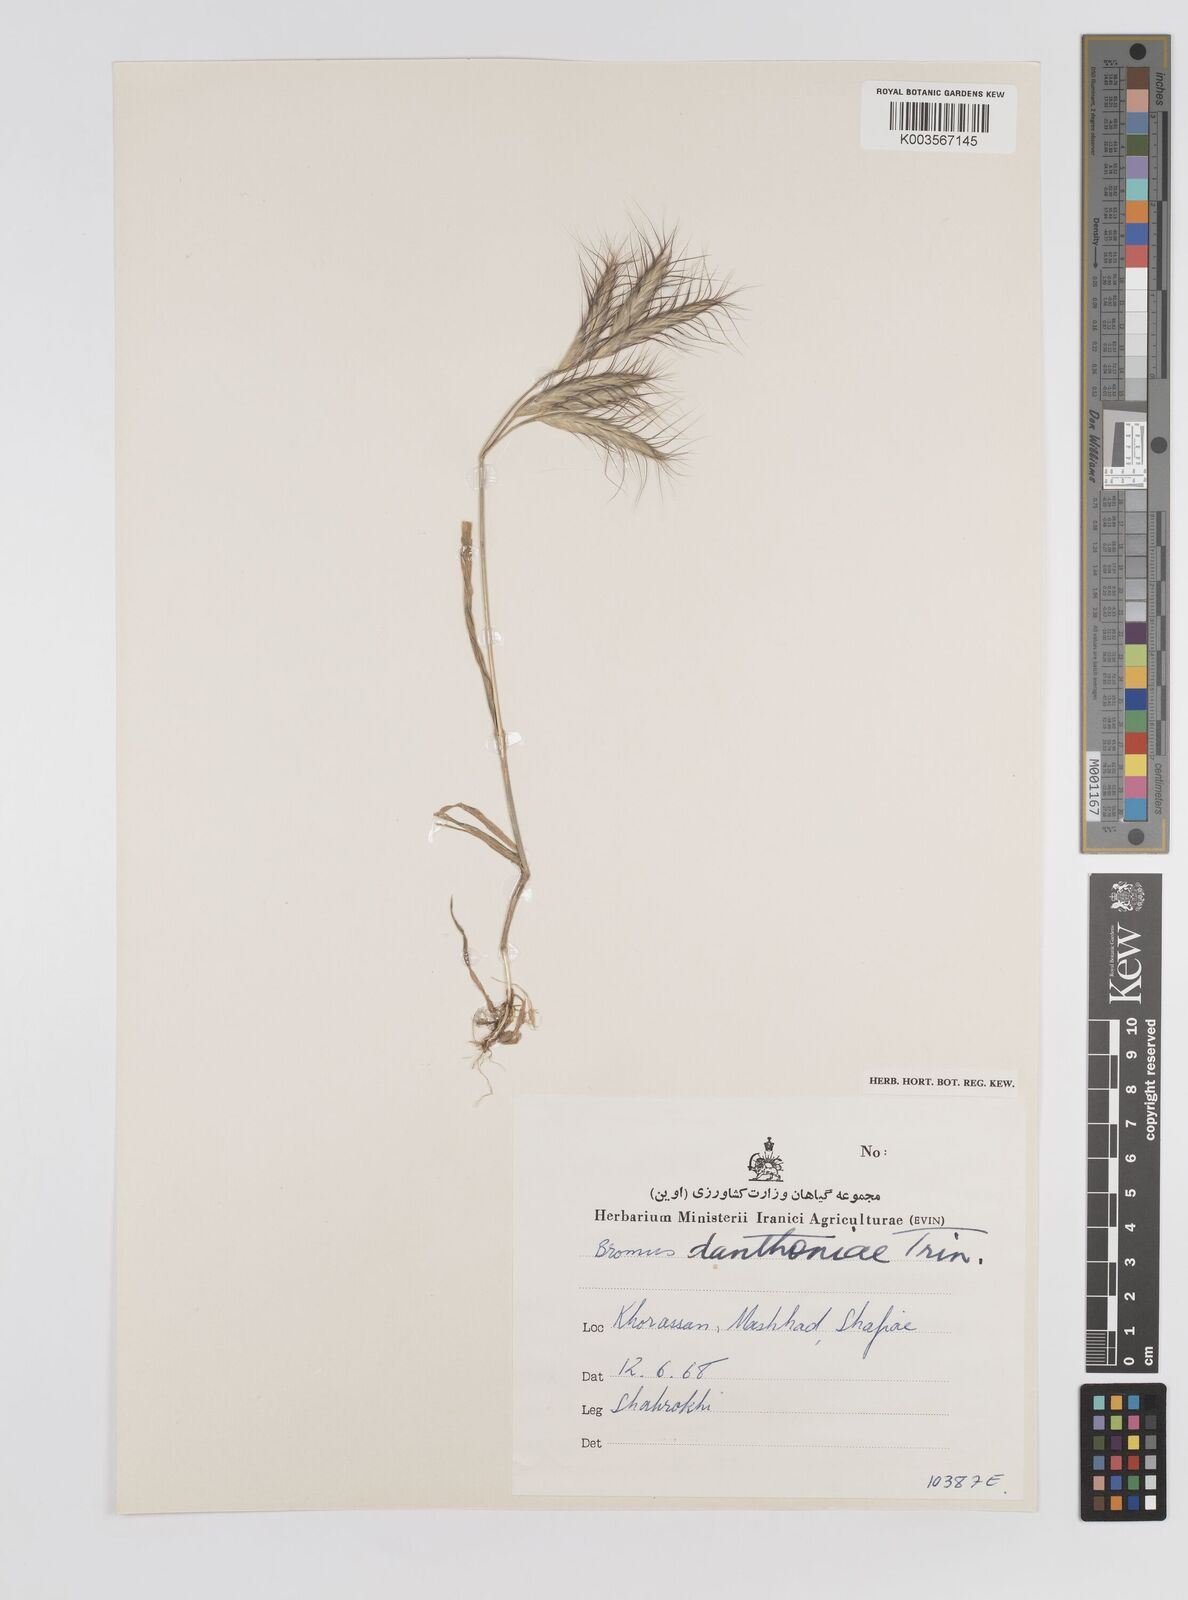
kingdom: Plantae
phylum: Tracheophyta
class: Liliopsida
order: Poales
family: Poaceae
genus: Bromus
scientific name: Bromus danthoniae
